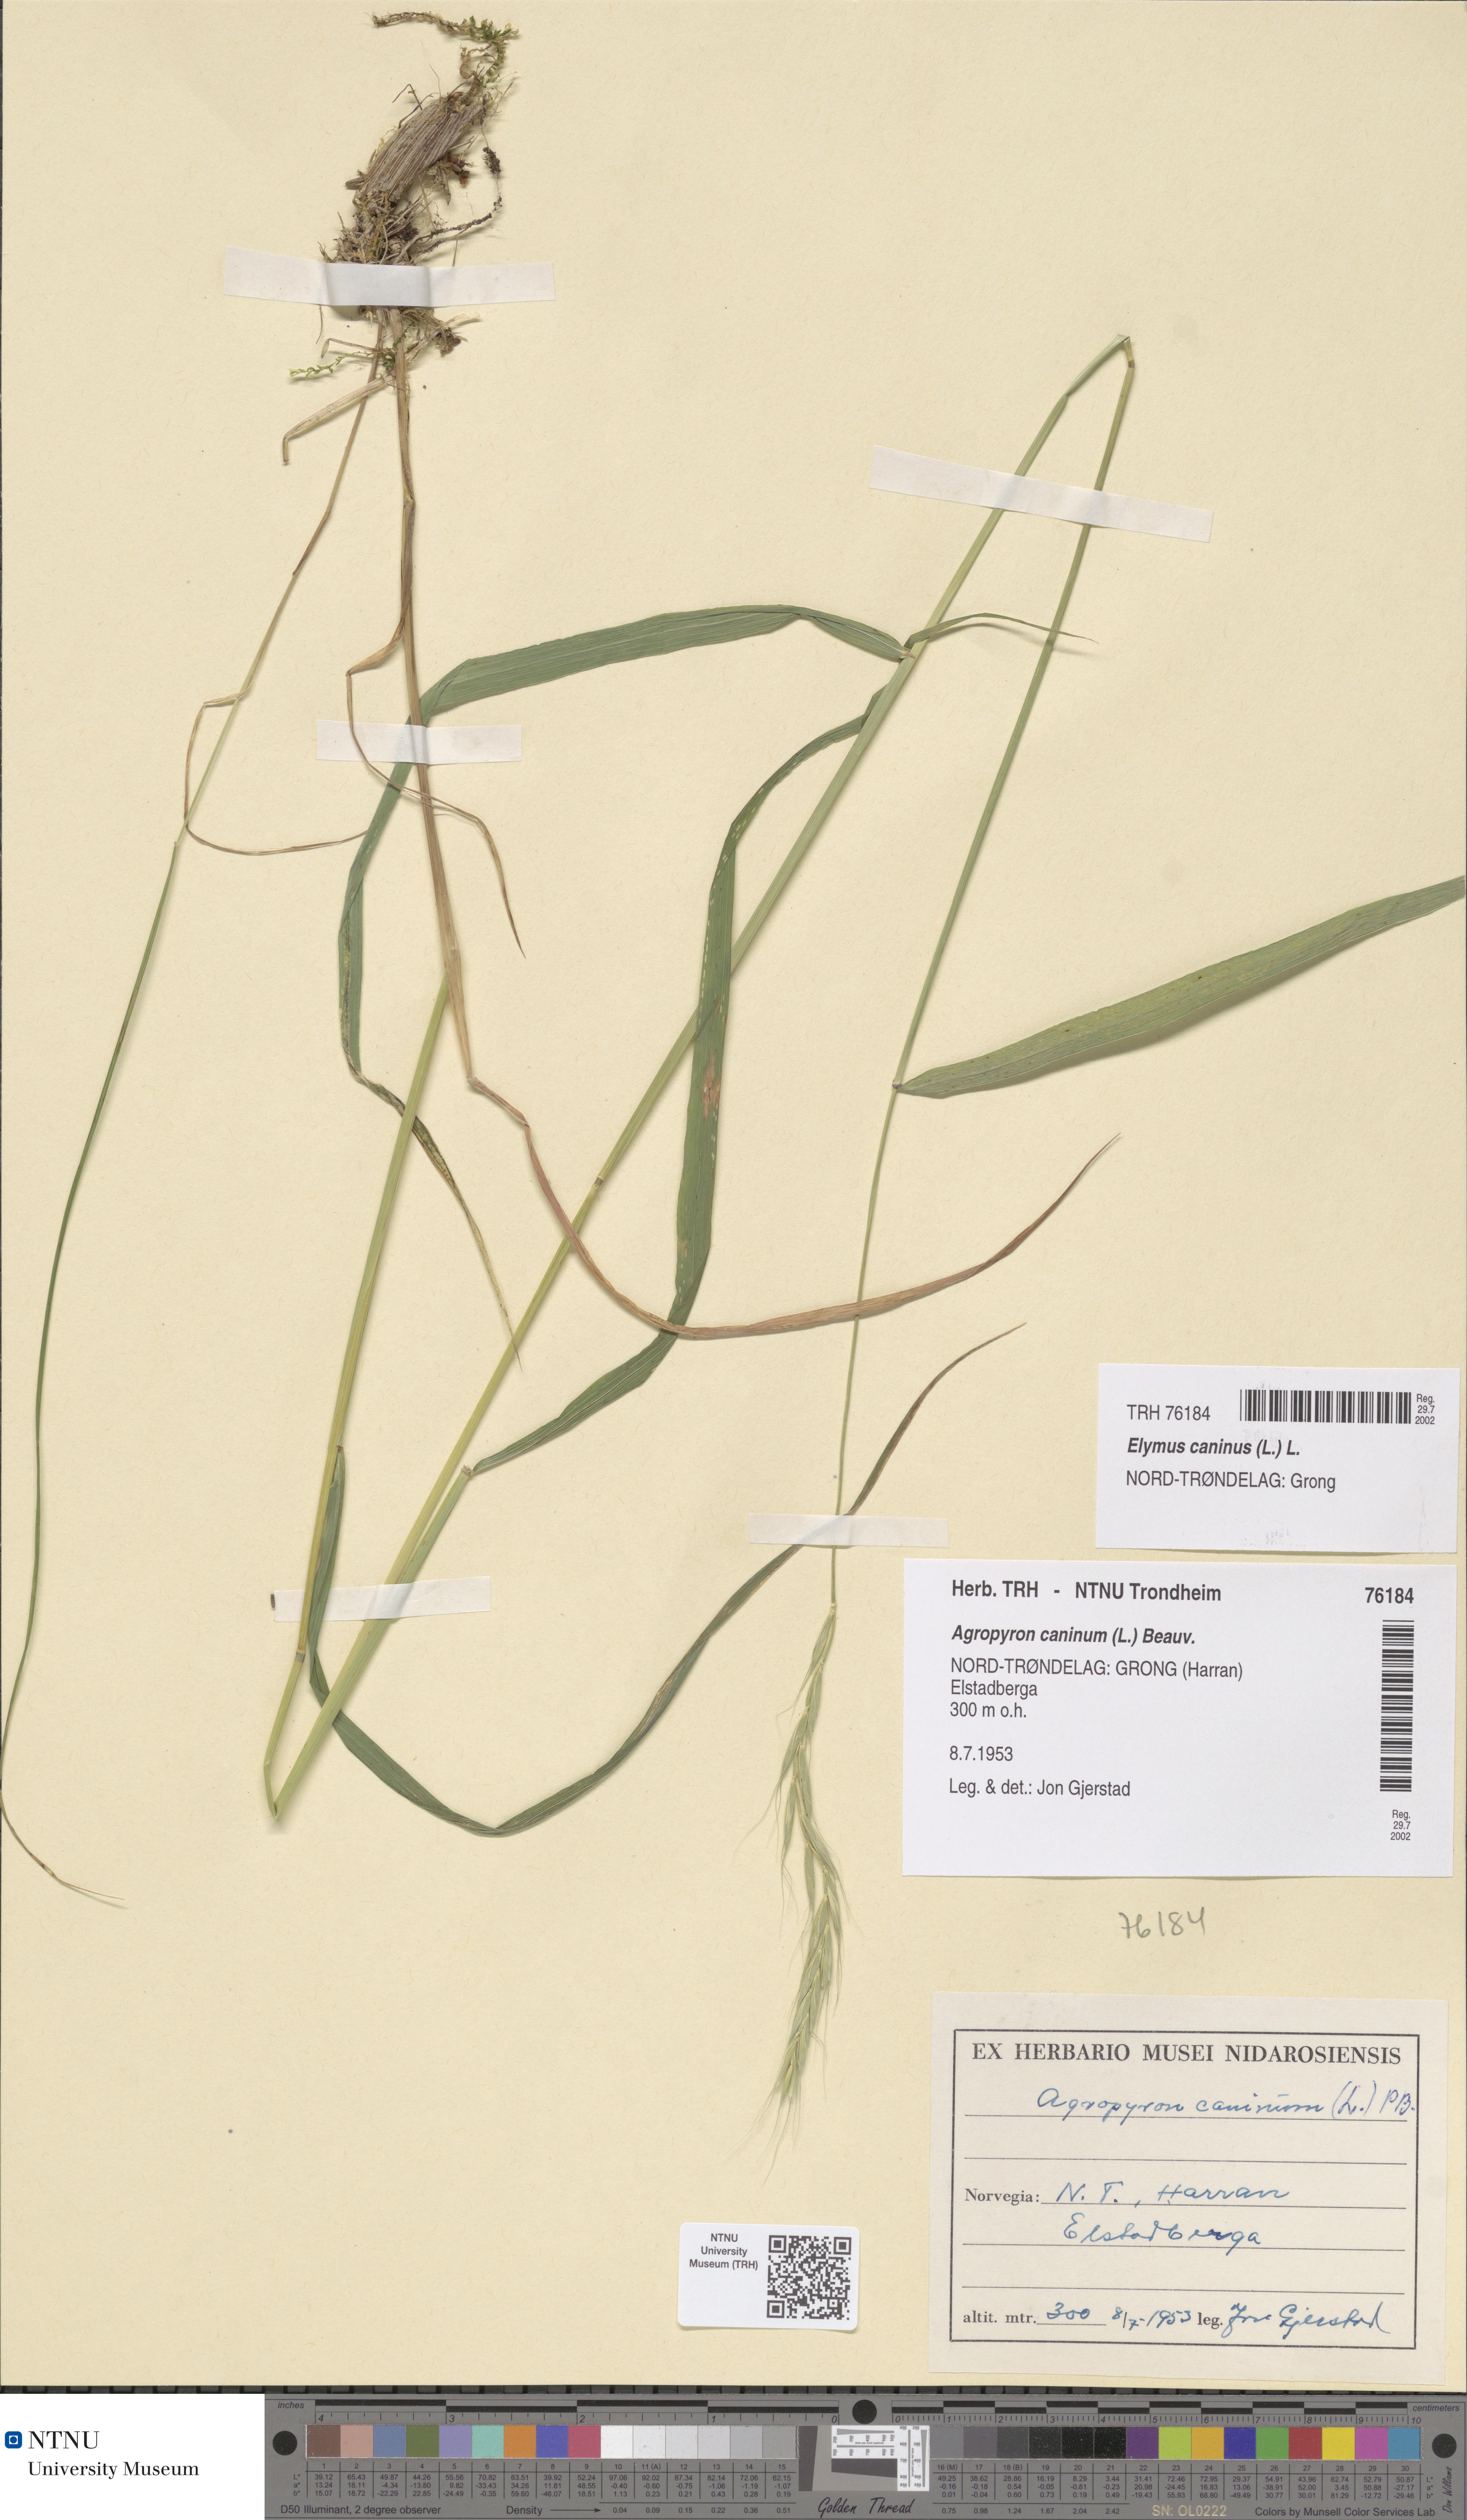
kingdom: Plantae
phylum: Tracheophyta
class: Liliopsida
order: Poales
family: Poaceae
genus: Elymus
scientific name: Elymus caninus
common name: Bearded couch
